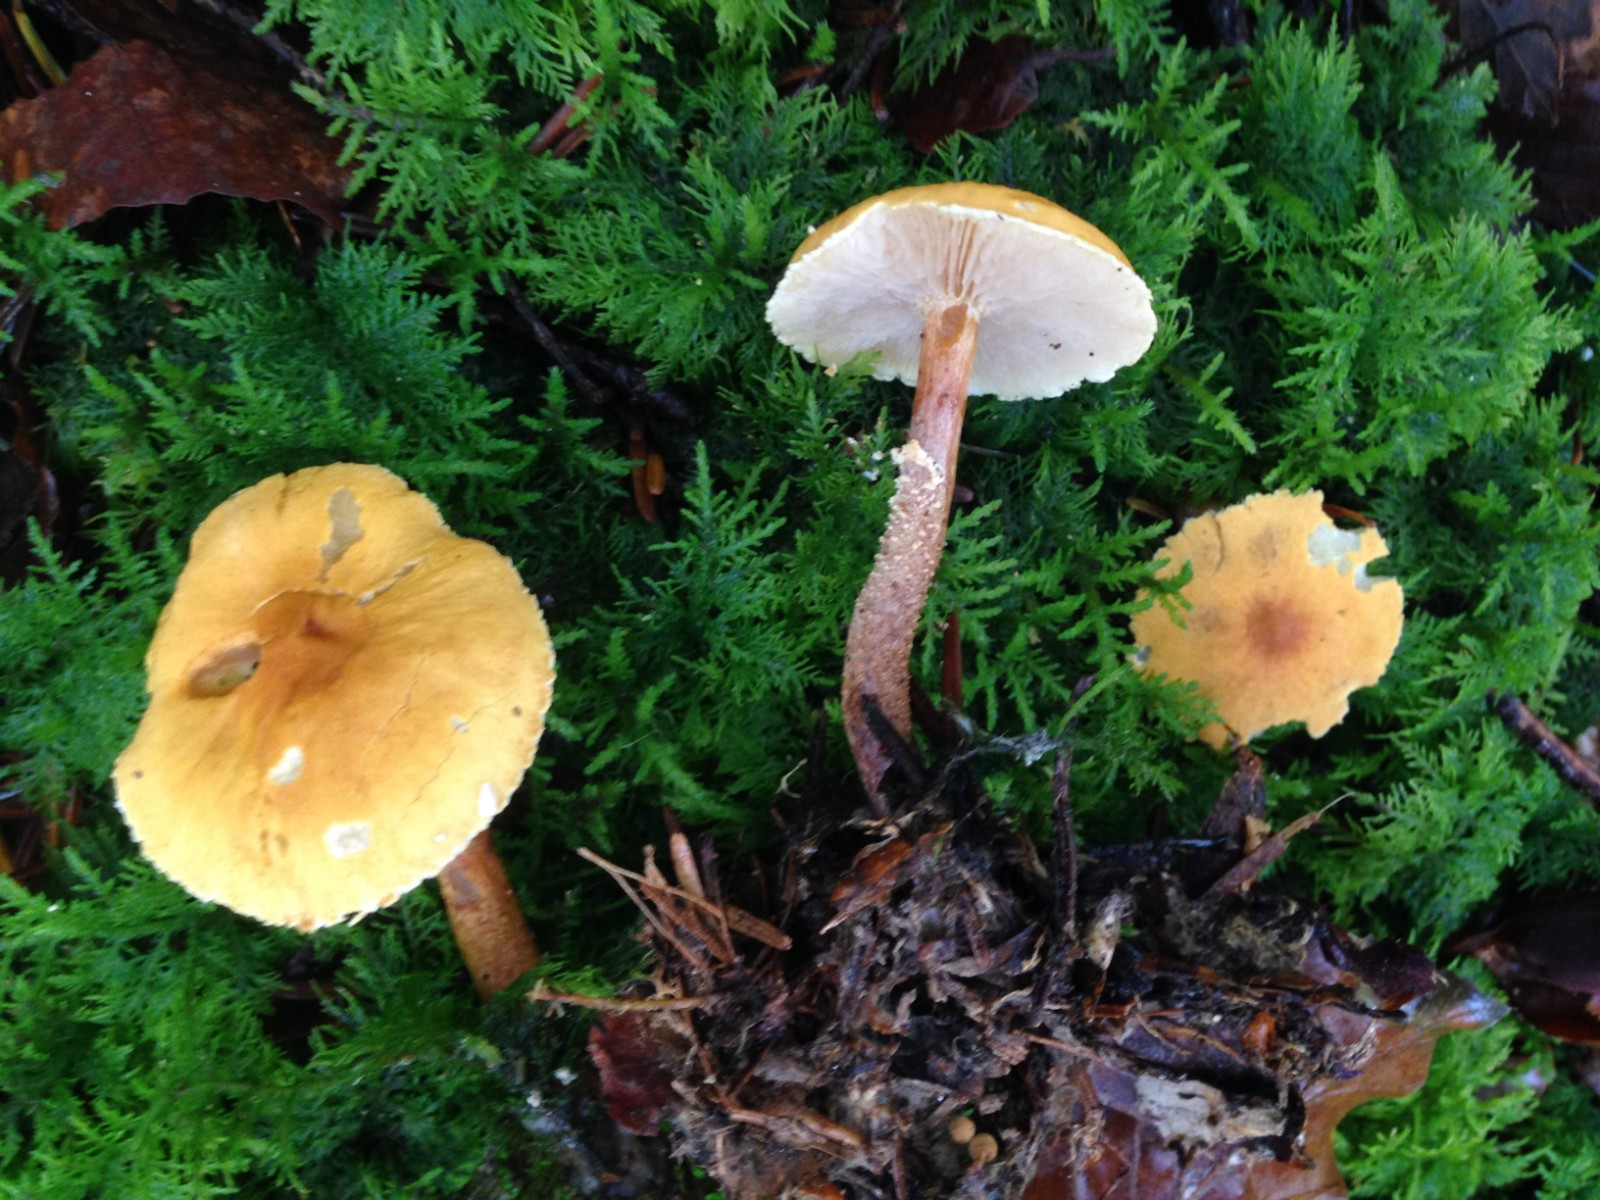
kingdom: Fungi
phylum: Basidiomycota
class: Agaricomycetes
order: Agaricales
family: Tricholomataceae
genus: Cystoderma
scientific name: Cystoderma amianthinum
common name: okkergul grynhat
